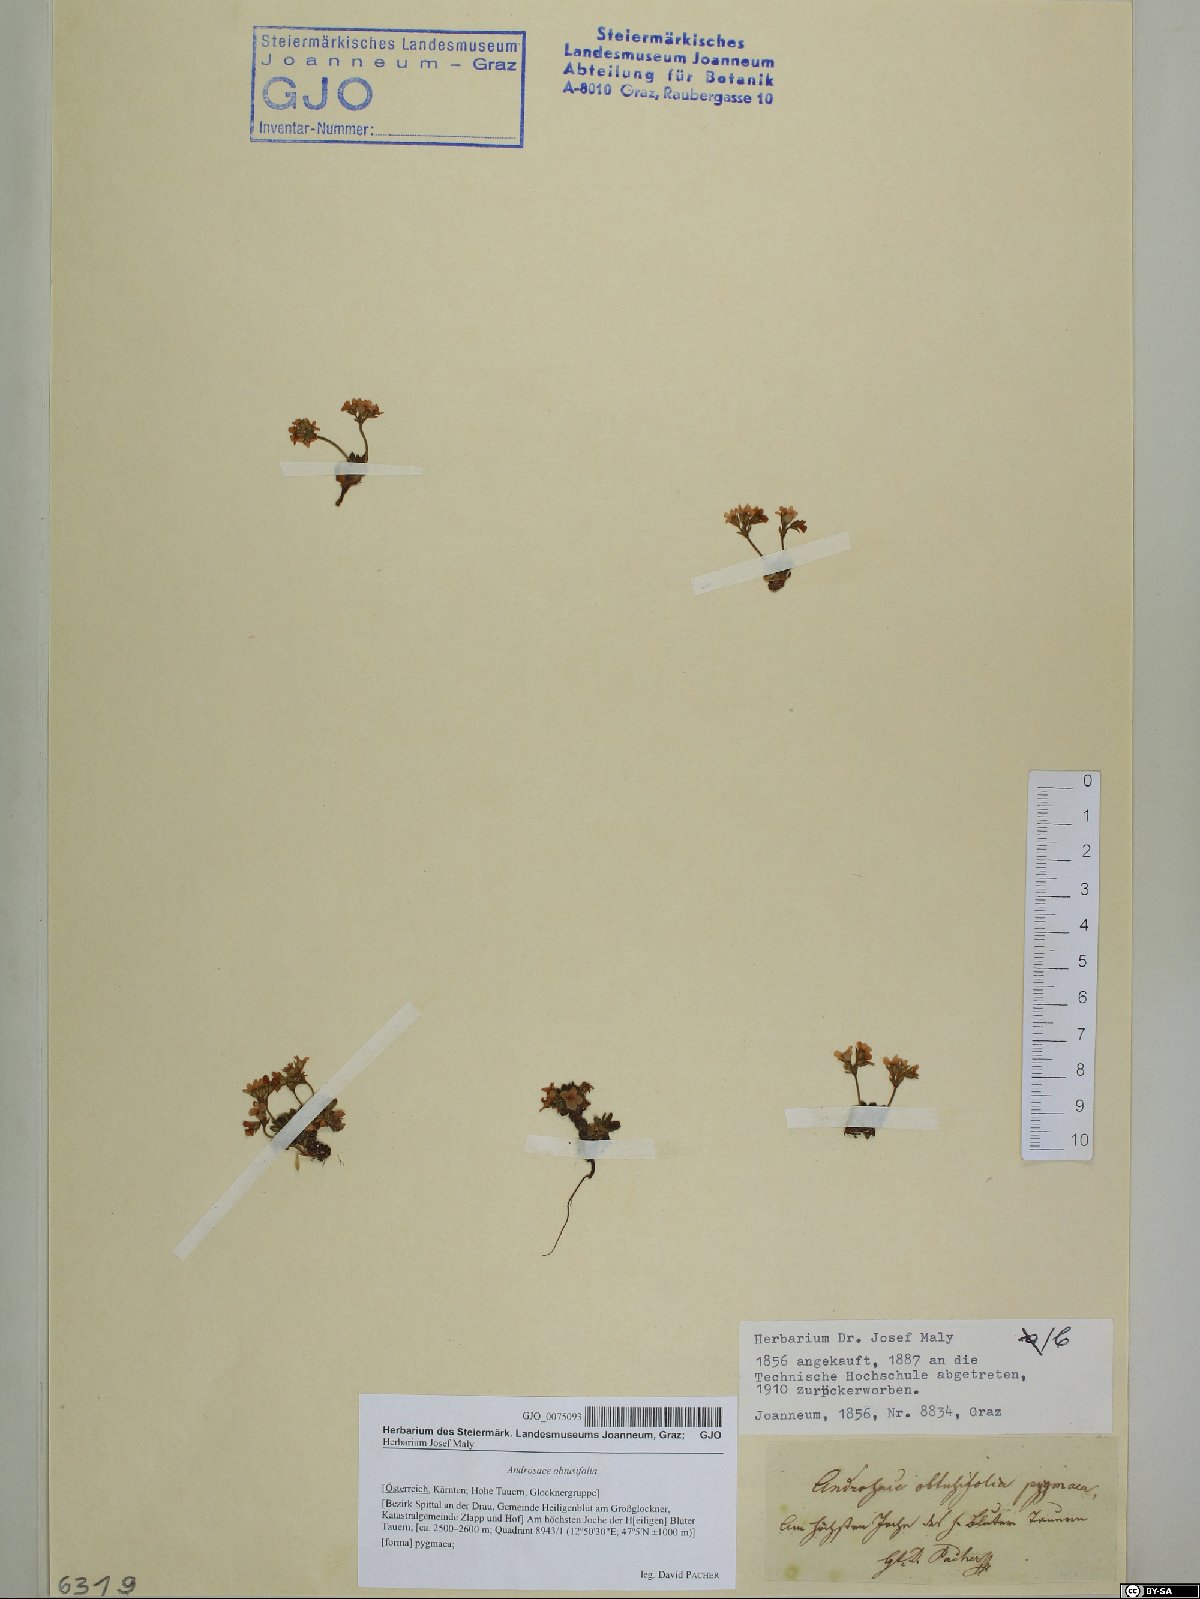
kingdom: Plantae
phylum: Tracheophyta
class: Magnoliopsida
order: Ericales
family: Primulaceae
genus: Androsace
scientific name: Androsace obtusifolia
